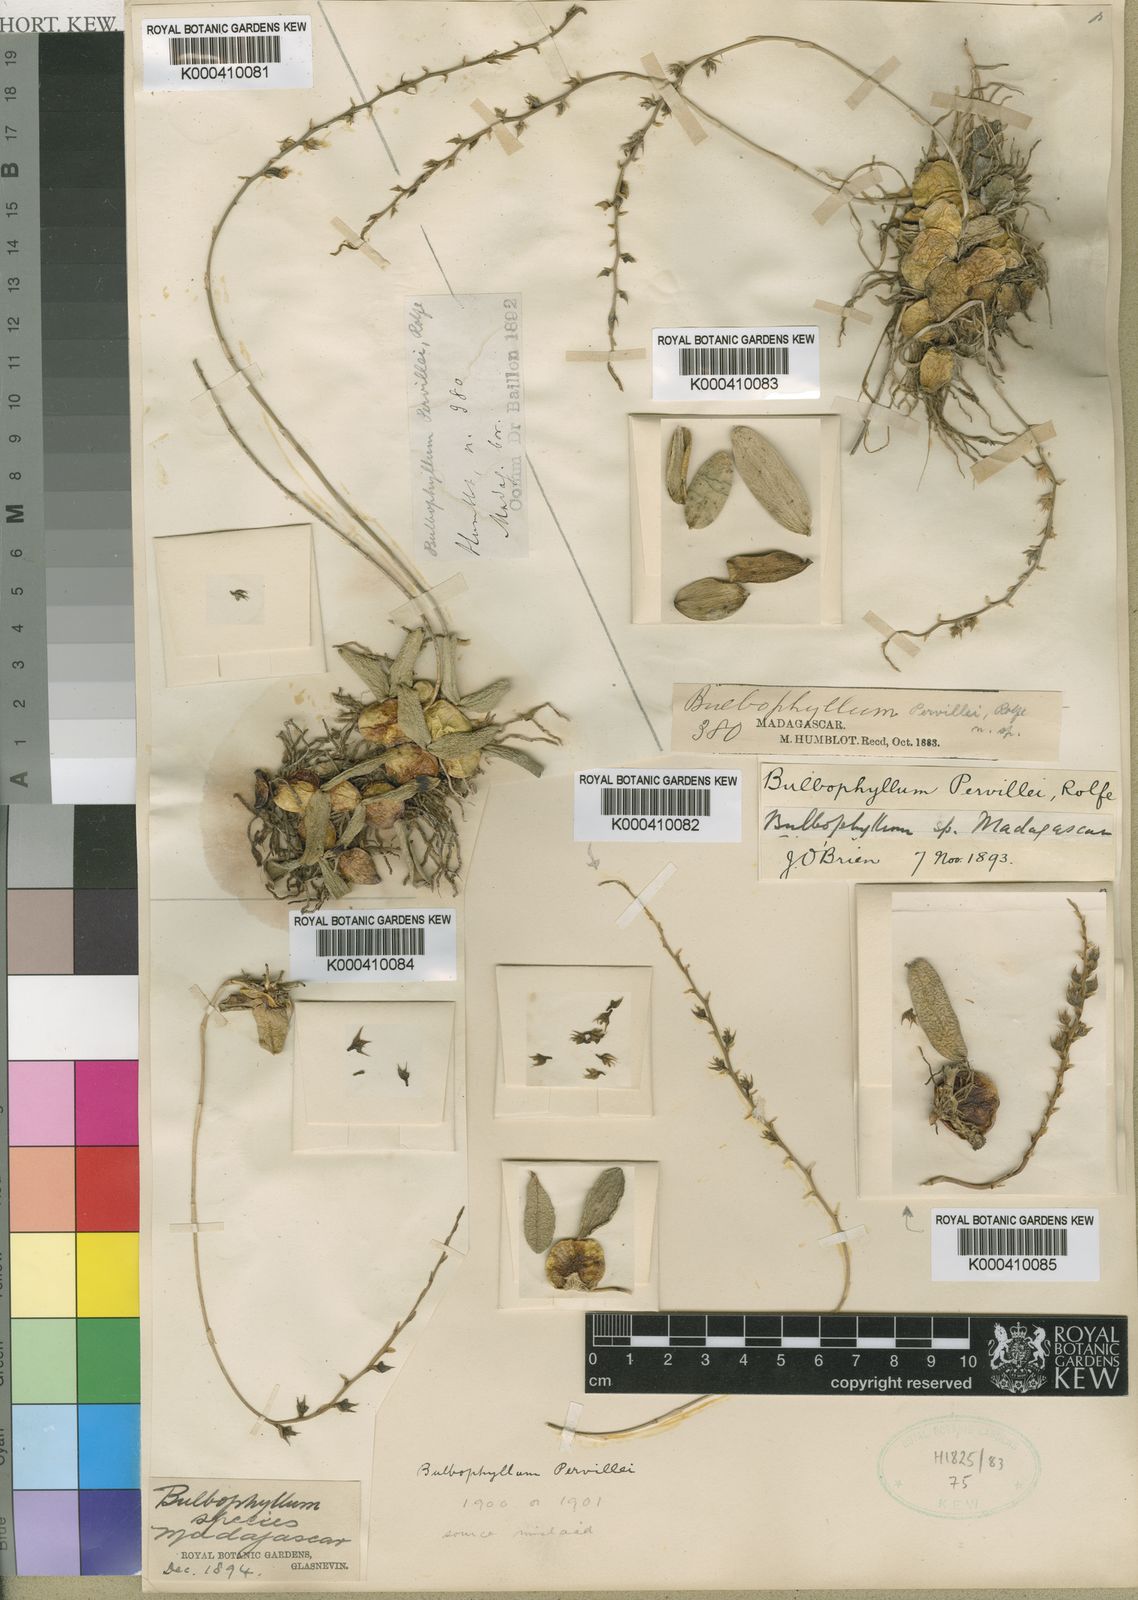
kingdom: Plantae
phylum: Tracheophyta
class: Liliopsida
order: Asparagales
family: Orchidaceae
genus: Bulbophyllum
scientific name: Bulbophyllum
